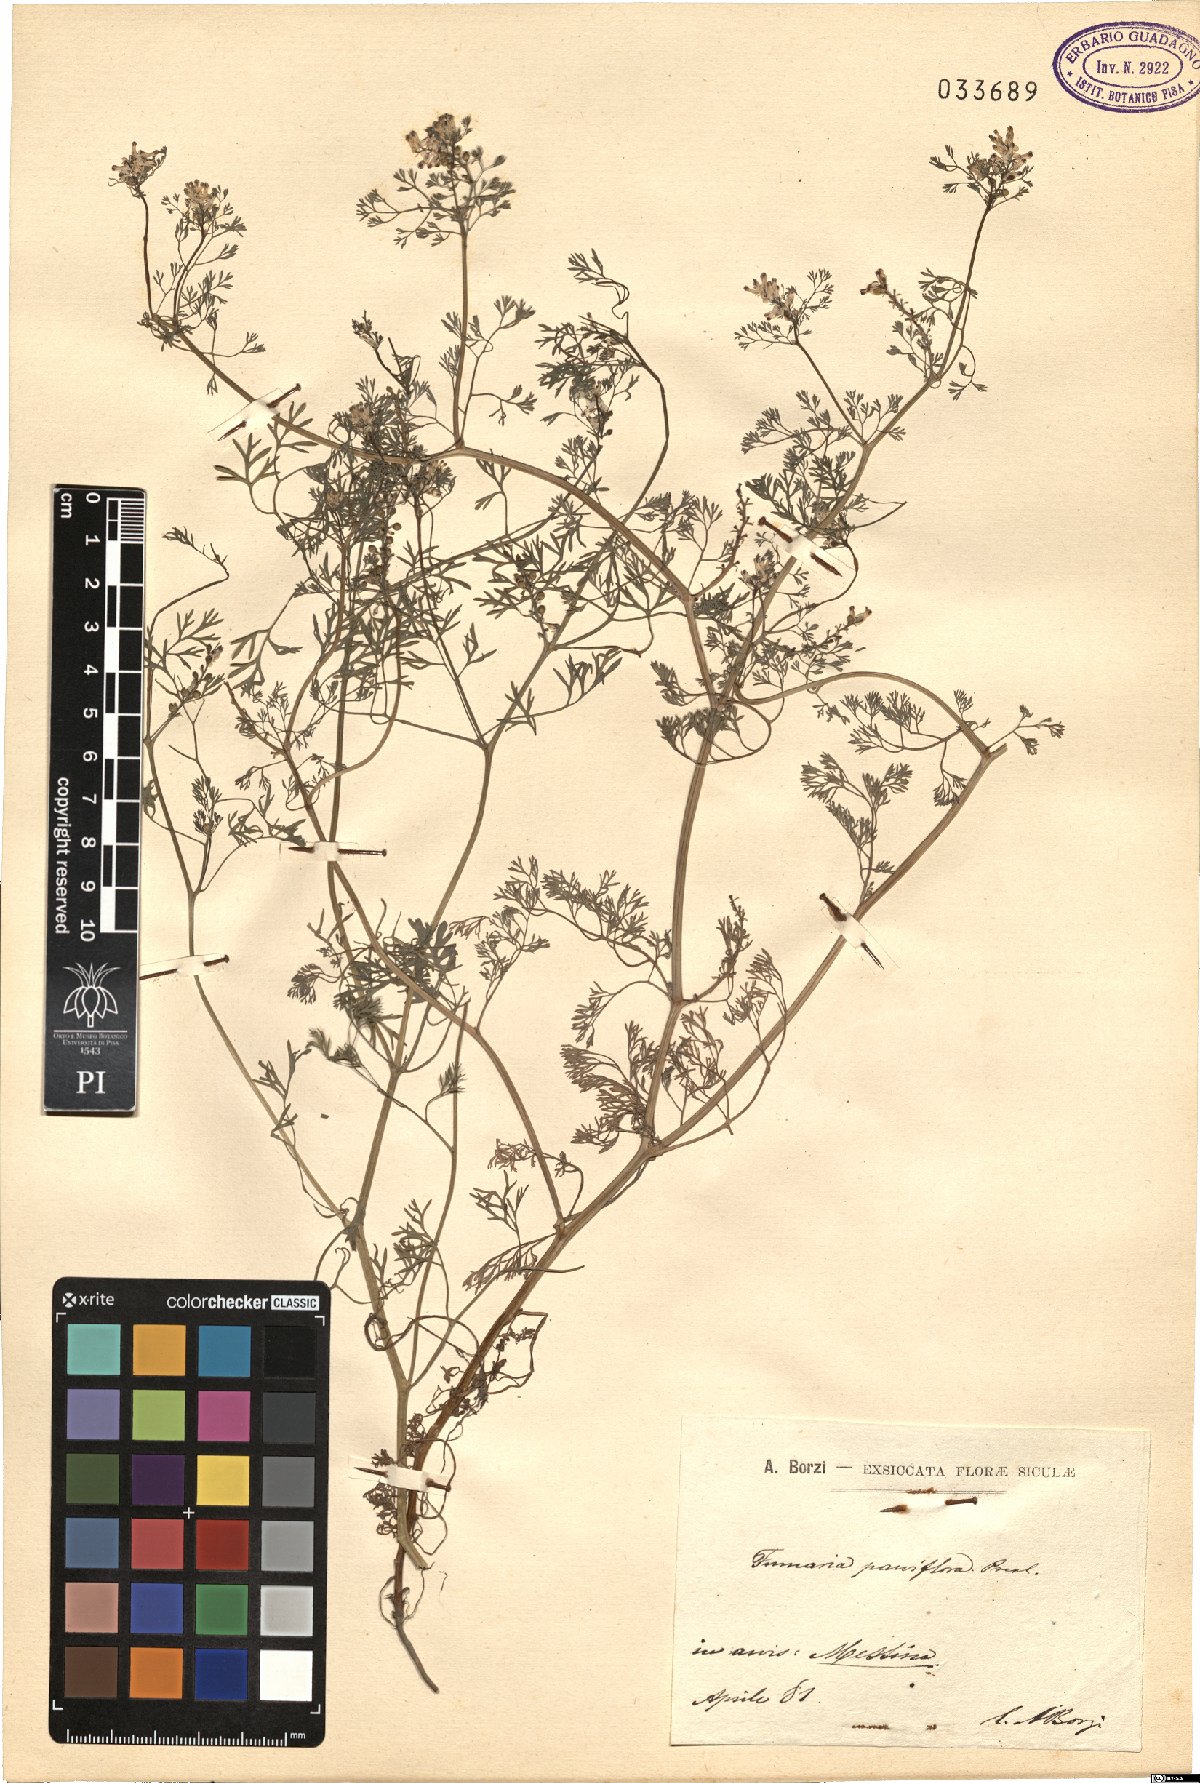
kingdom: Plantae
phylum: Tracheophyta
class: Magnoliopsida
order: Ranunculales
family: Papaveraceae
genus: Fumaria
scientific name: Fumaria parviflora
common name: Fine-leaved fumitory
